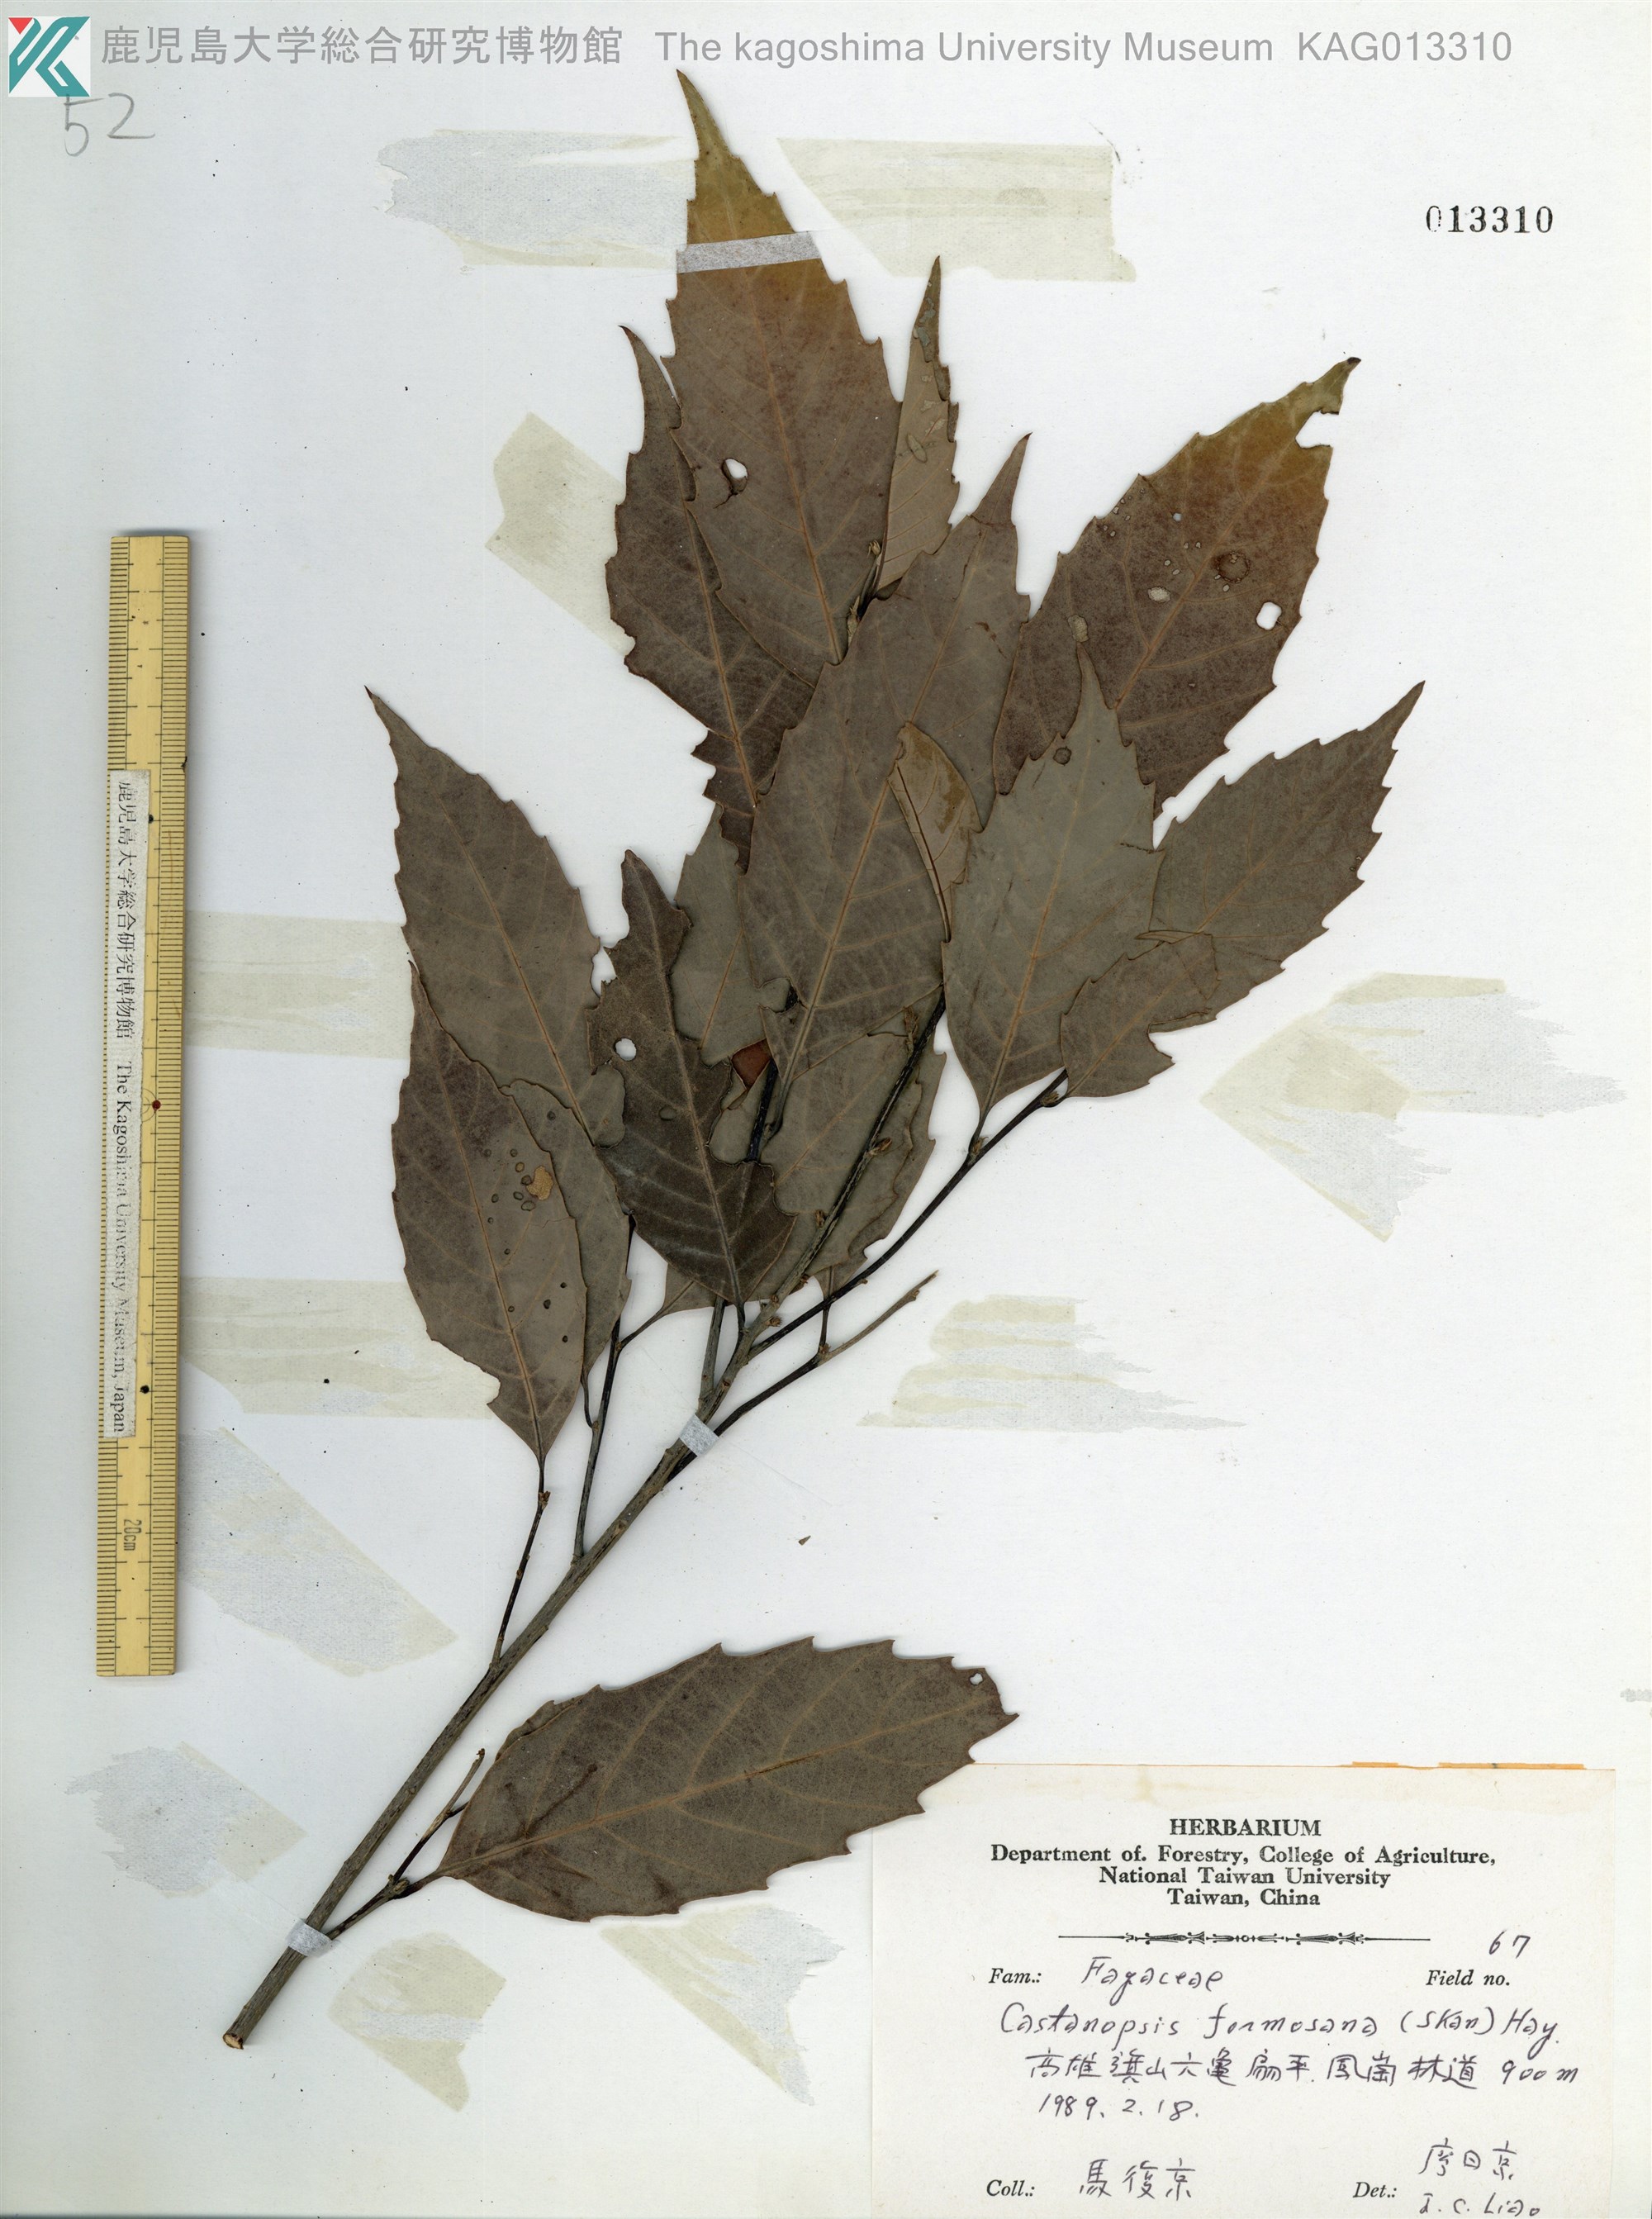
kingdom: Plantae
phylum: Tracheophyta
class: Magnoliopsida
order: Fagales
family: Fagaceae
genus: Castanopsis
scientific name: Castanopsis formosana
